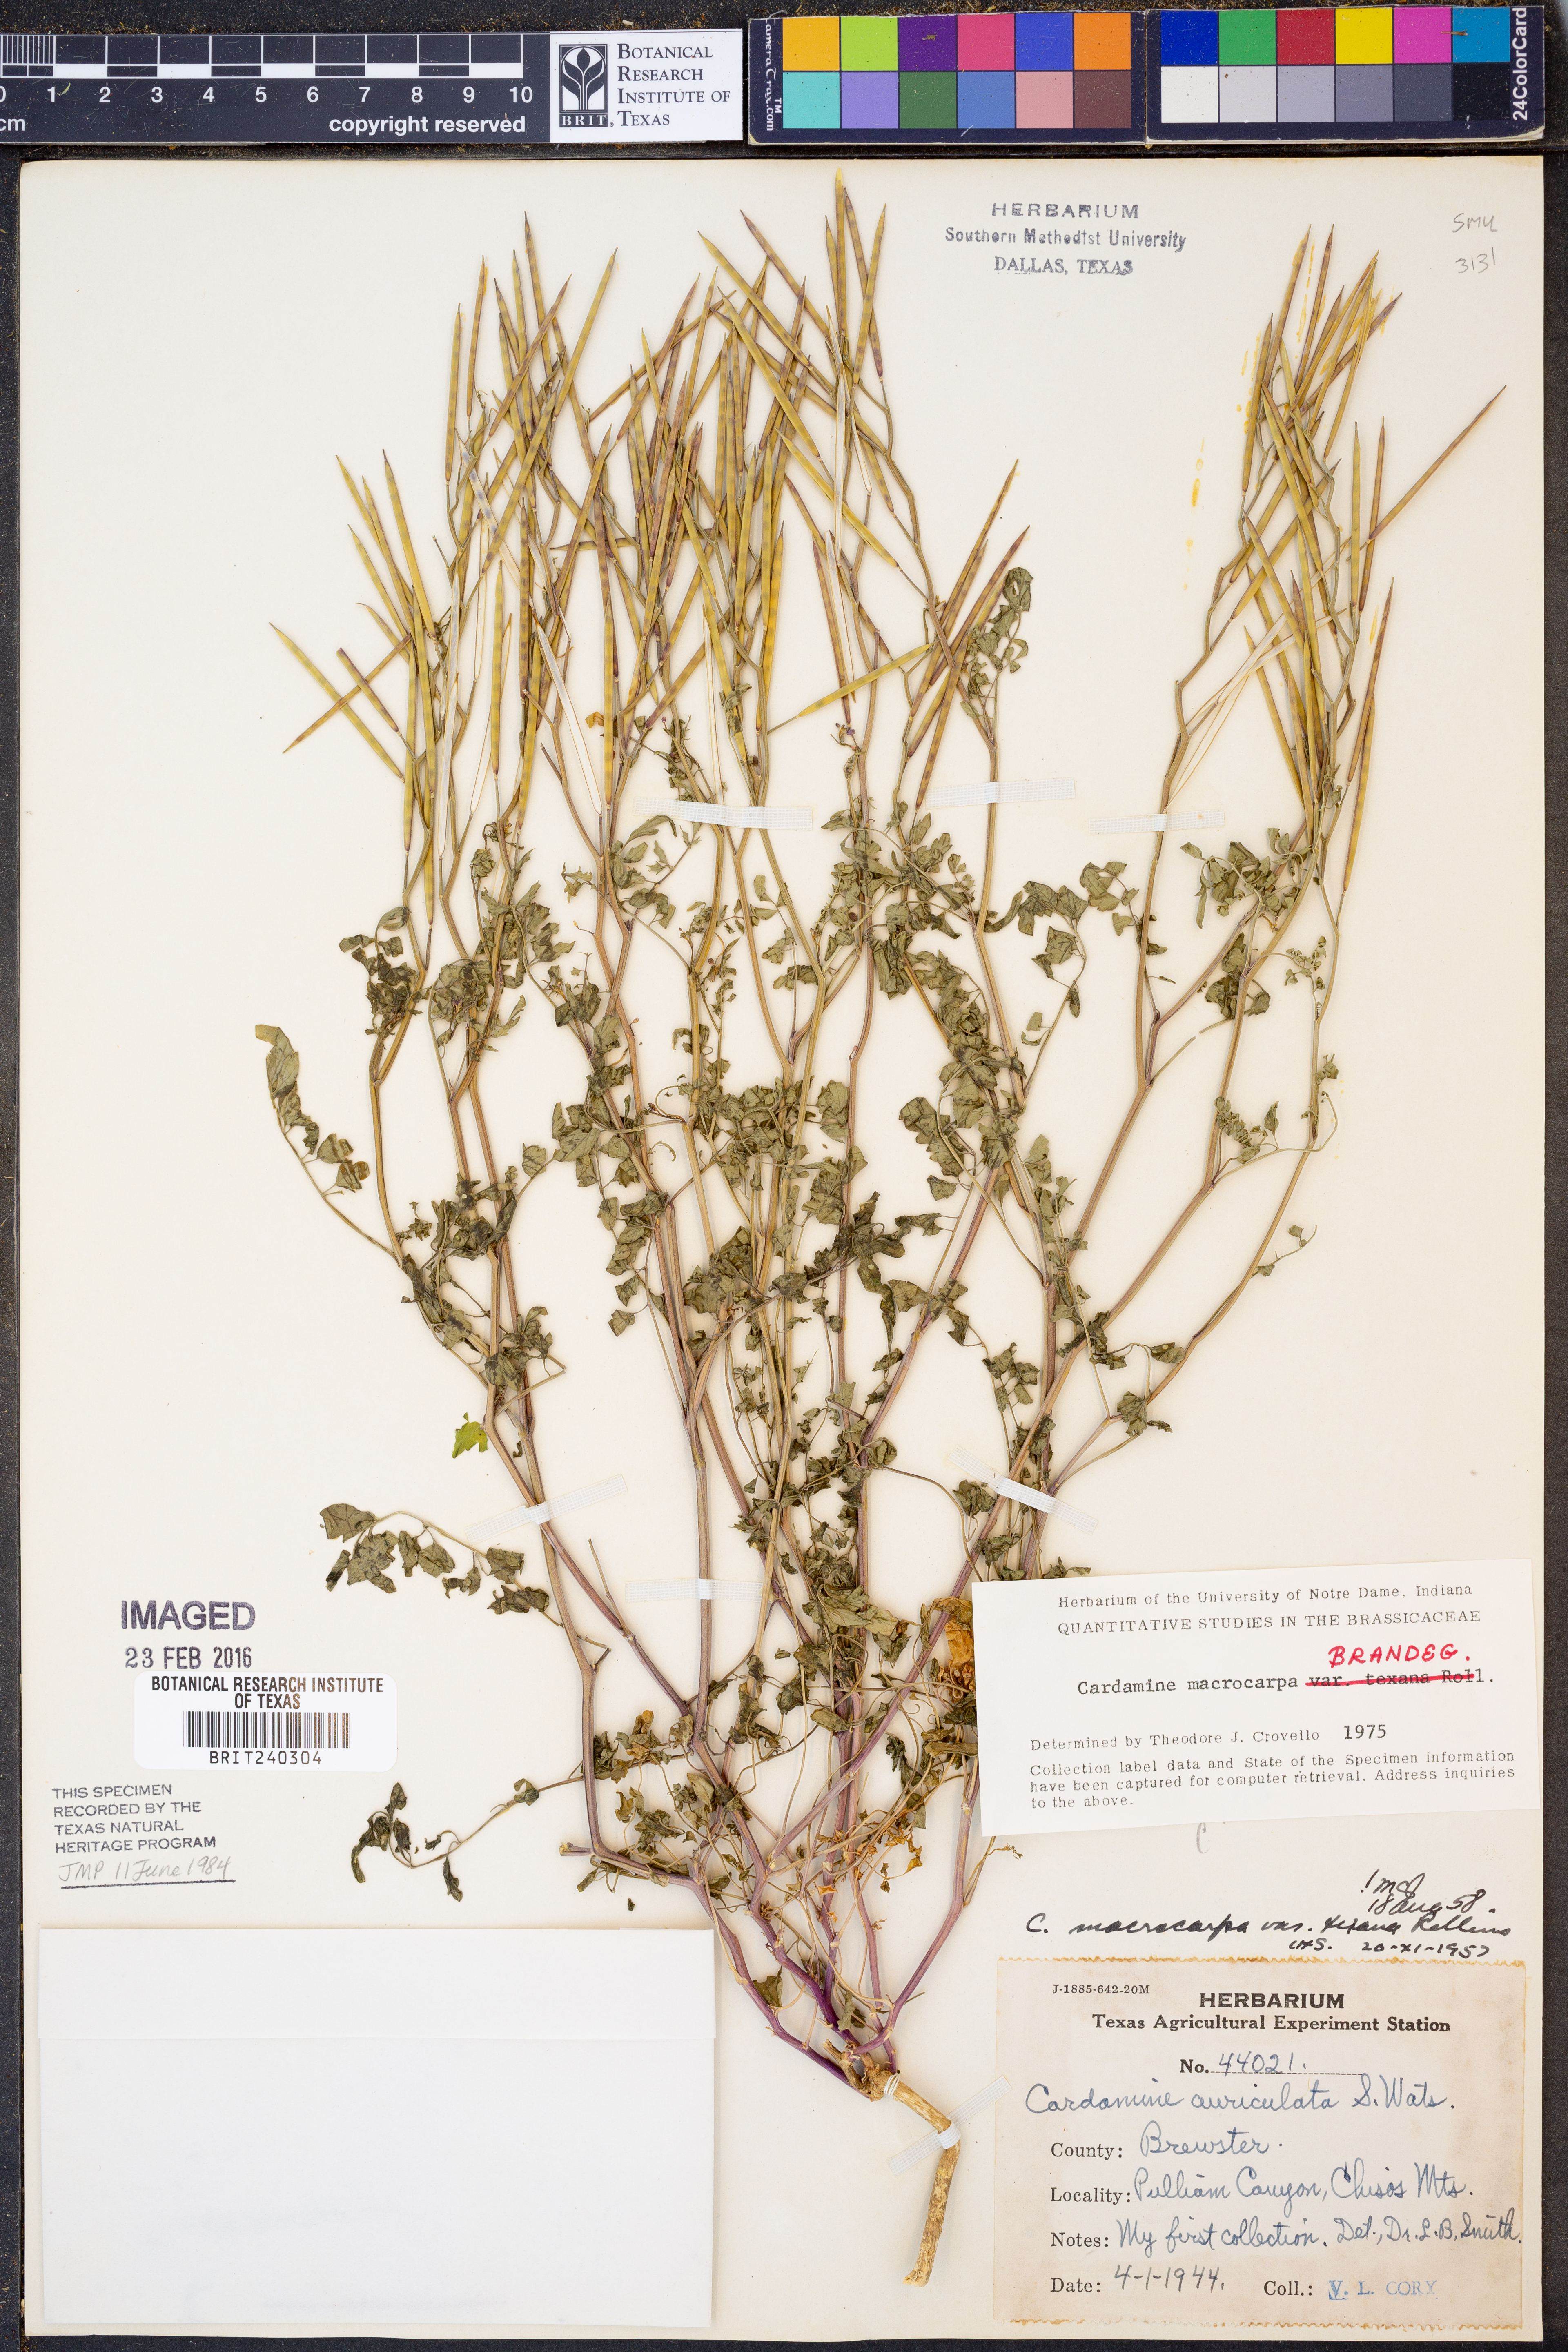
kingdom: Plantae
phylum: Tracheophyta
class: Magnoliopsida
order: Brassicales
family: Brassicaceae
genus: Cardamine
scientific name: Cardamine macrocarpa
